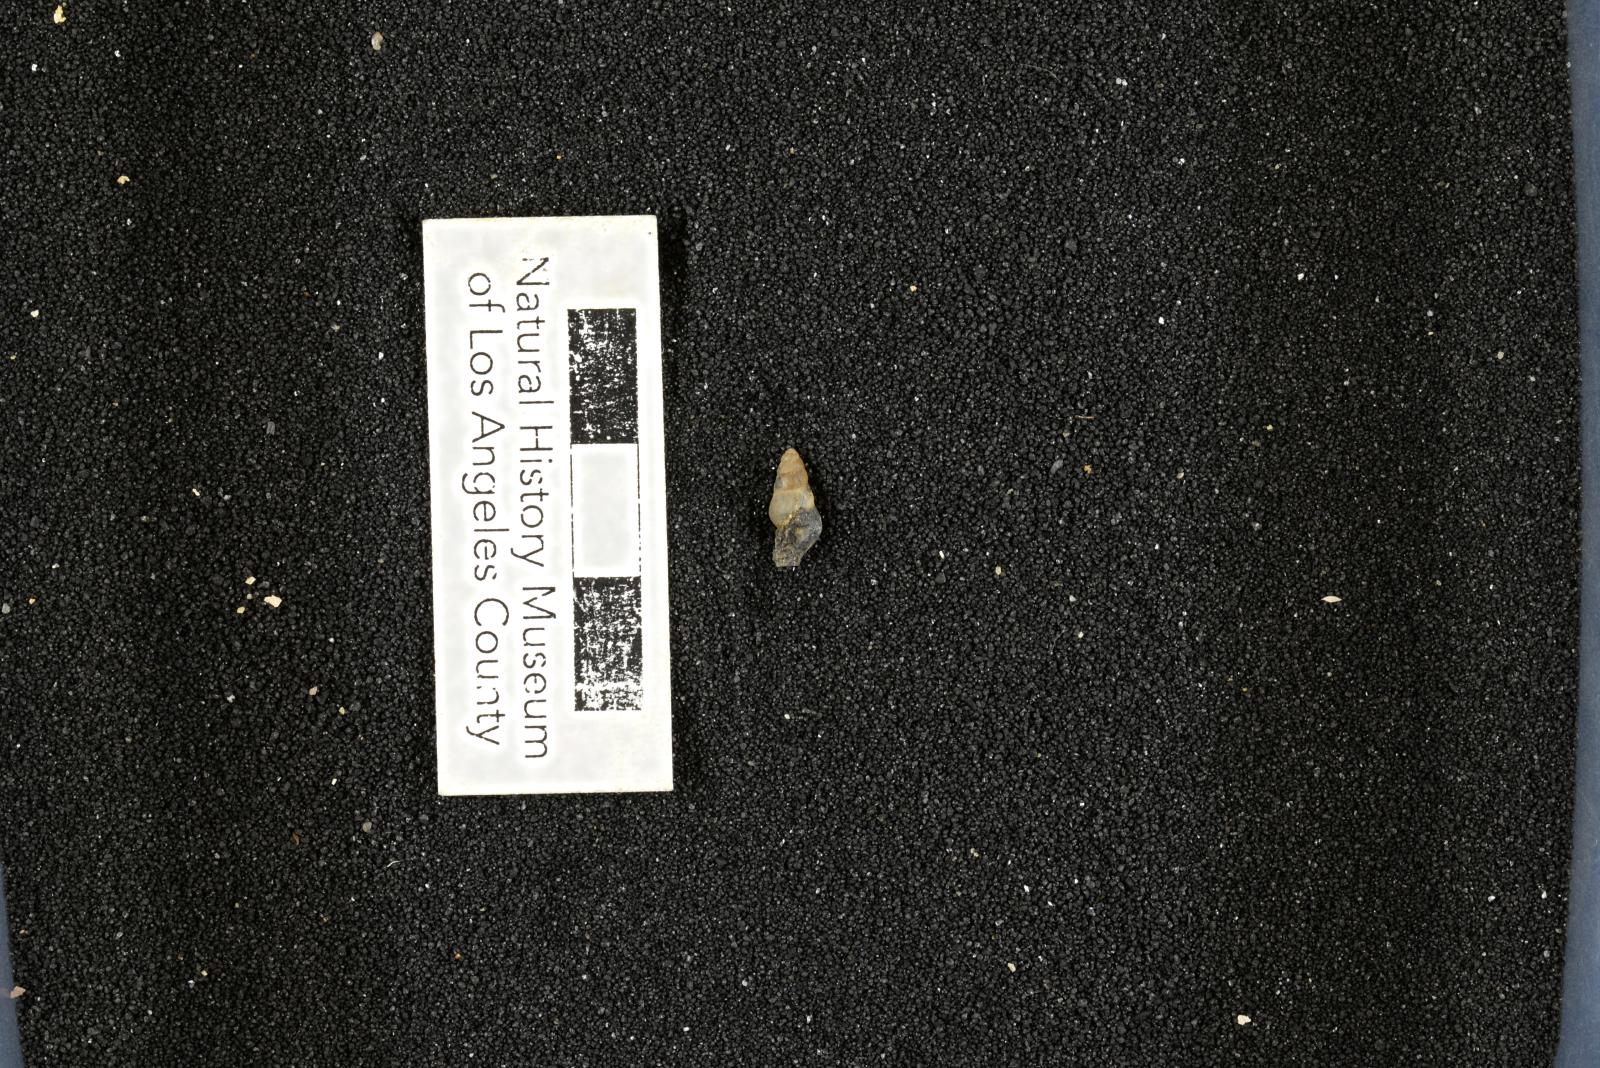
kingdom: Animalia
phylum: Mollusca
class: Gastropoda
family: Potamididae
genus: Echinobathra
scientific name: Echinobathra Cerithium austinense
